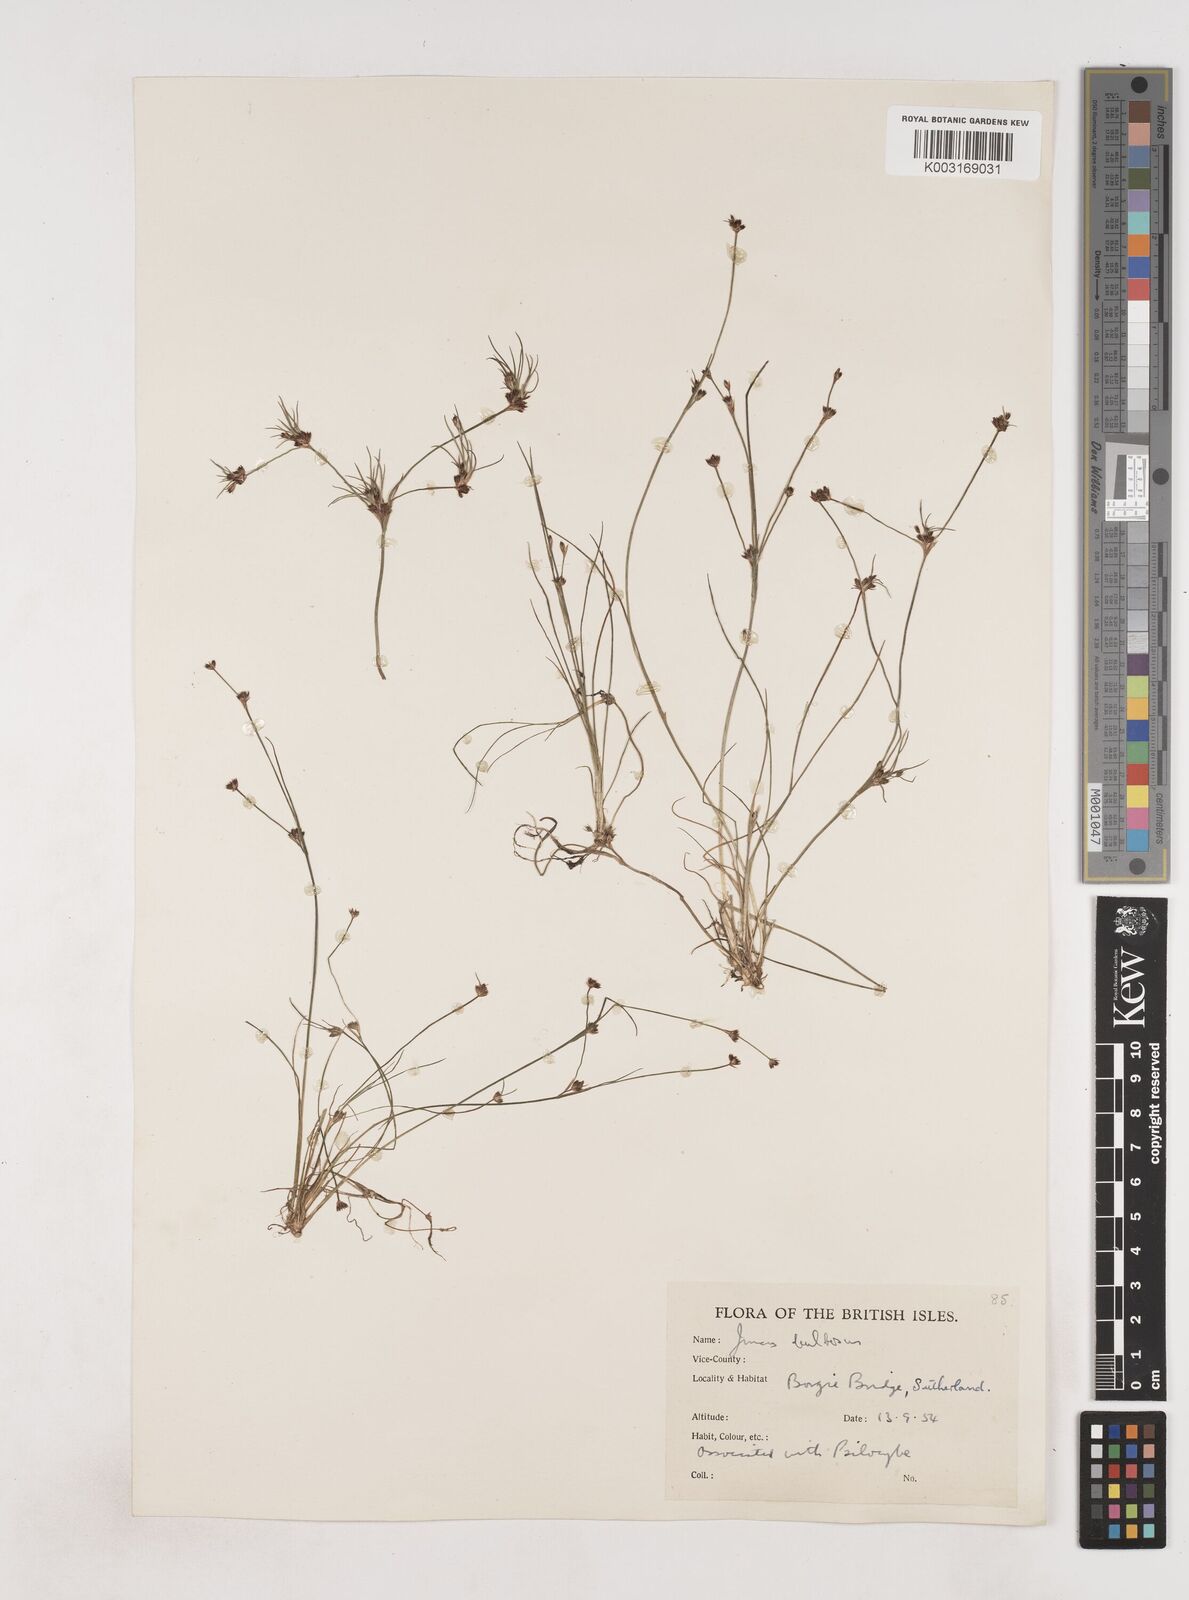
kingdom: Plantae
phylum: Tracheophyta
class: Liliopsida
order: Poales
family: Juncaceae
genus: Juncus
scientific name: Juncus bulbosus
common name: Bulbous rush
